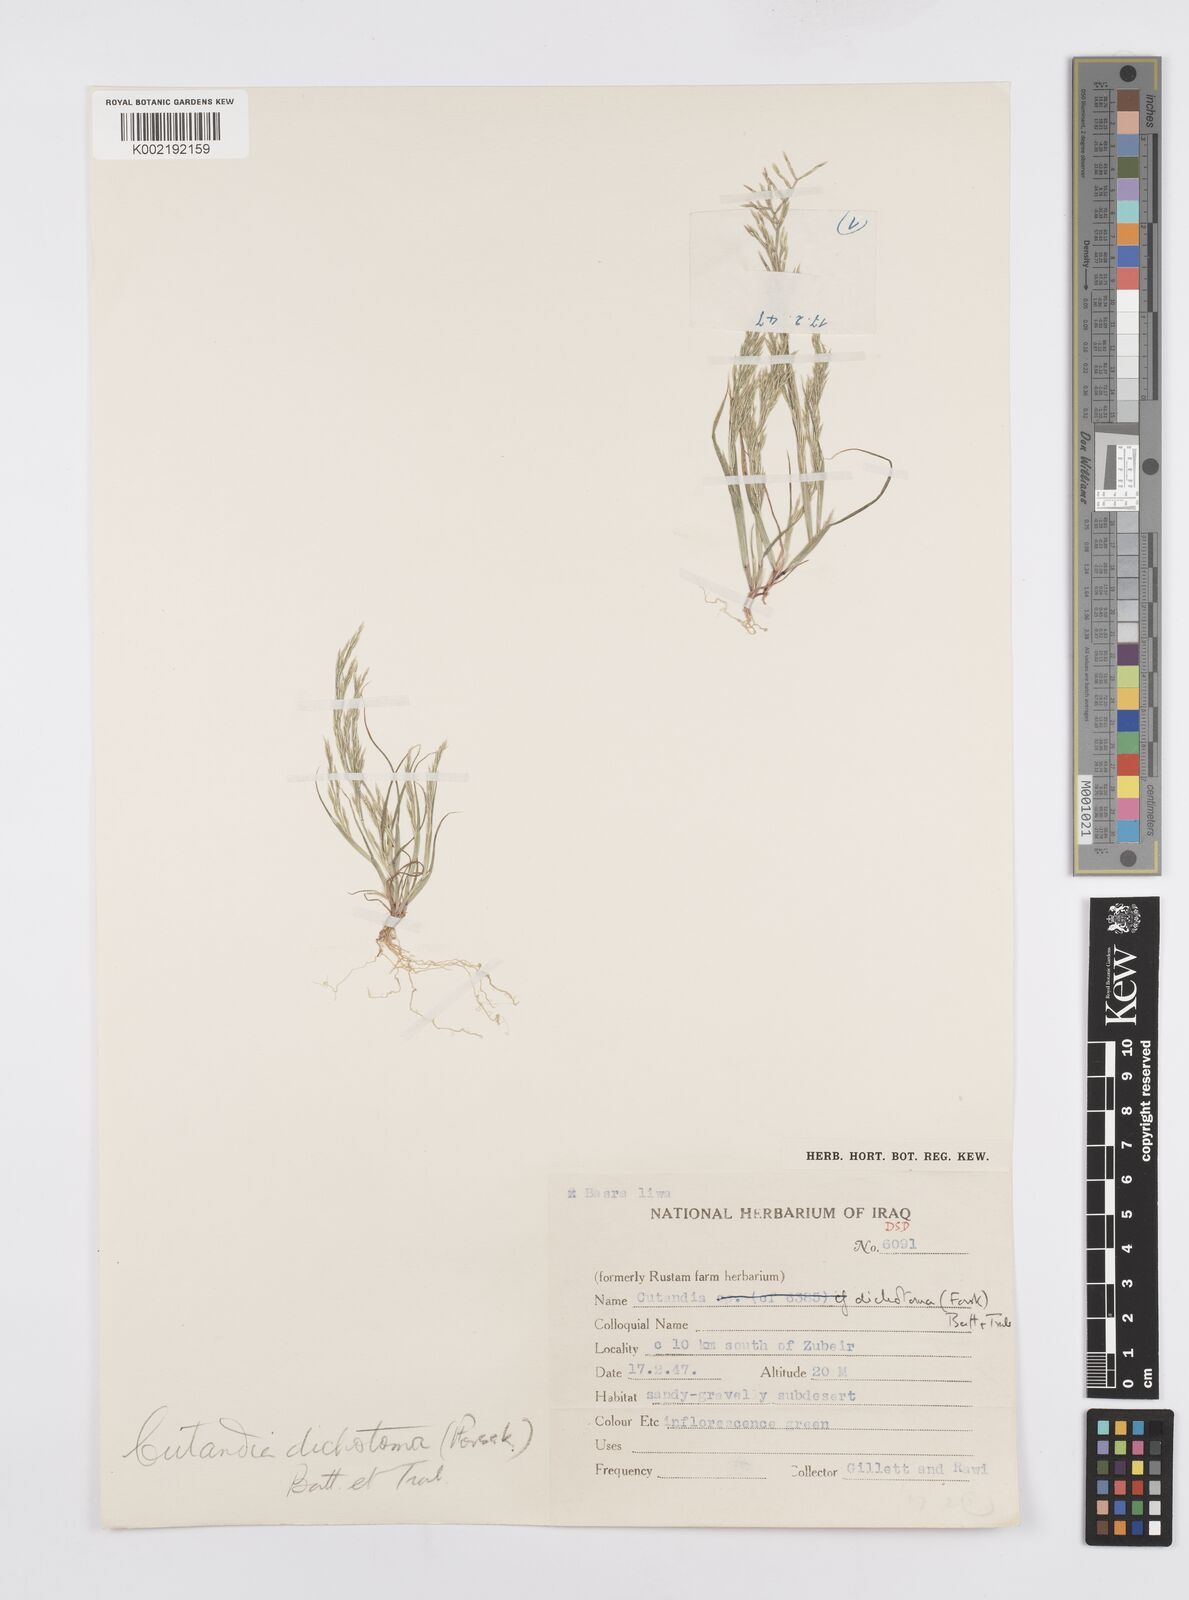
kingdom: Plantae
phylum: Tracheophyta
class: Liliopsida
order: Poales
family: Poaceae
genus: Cutandia
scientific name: Cutandia dichotoma
